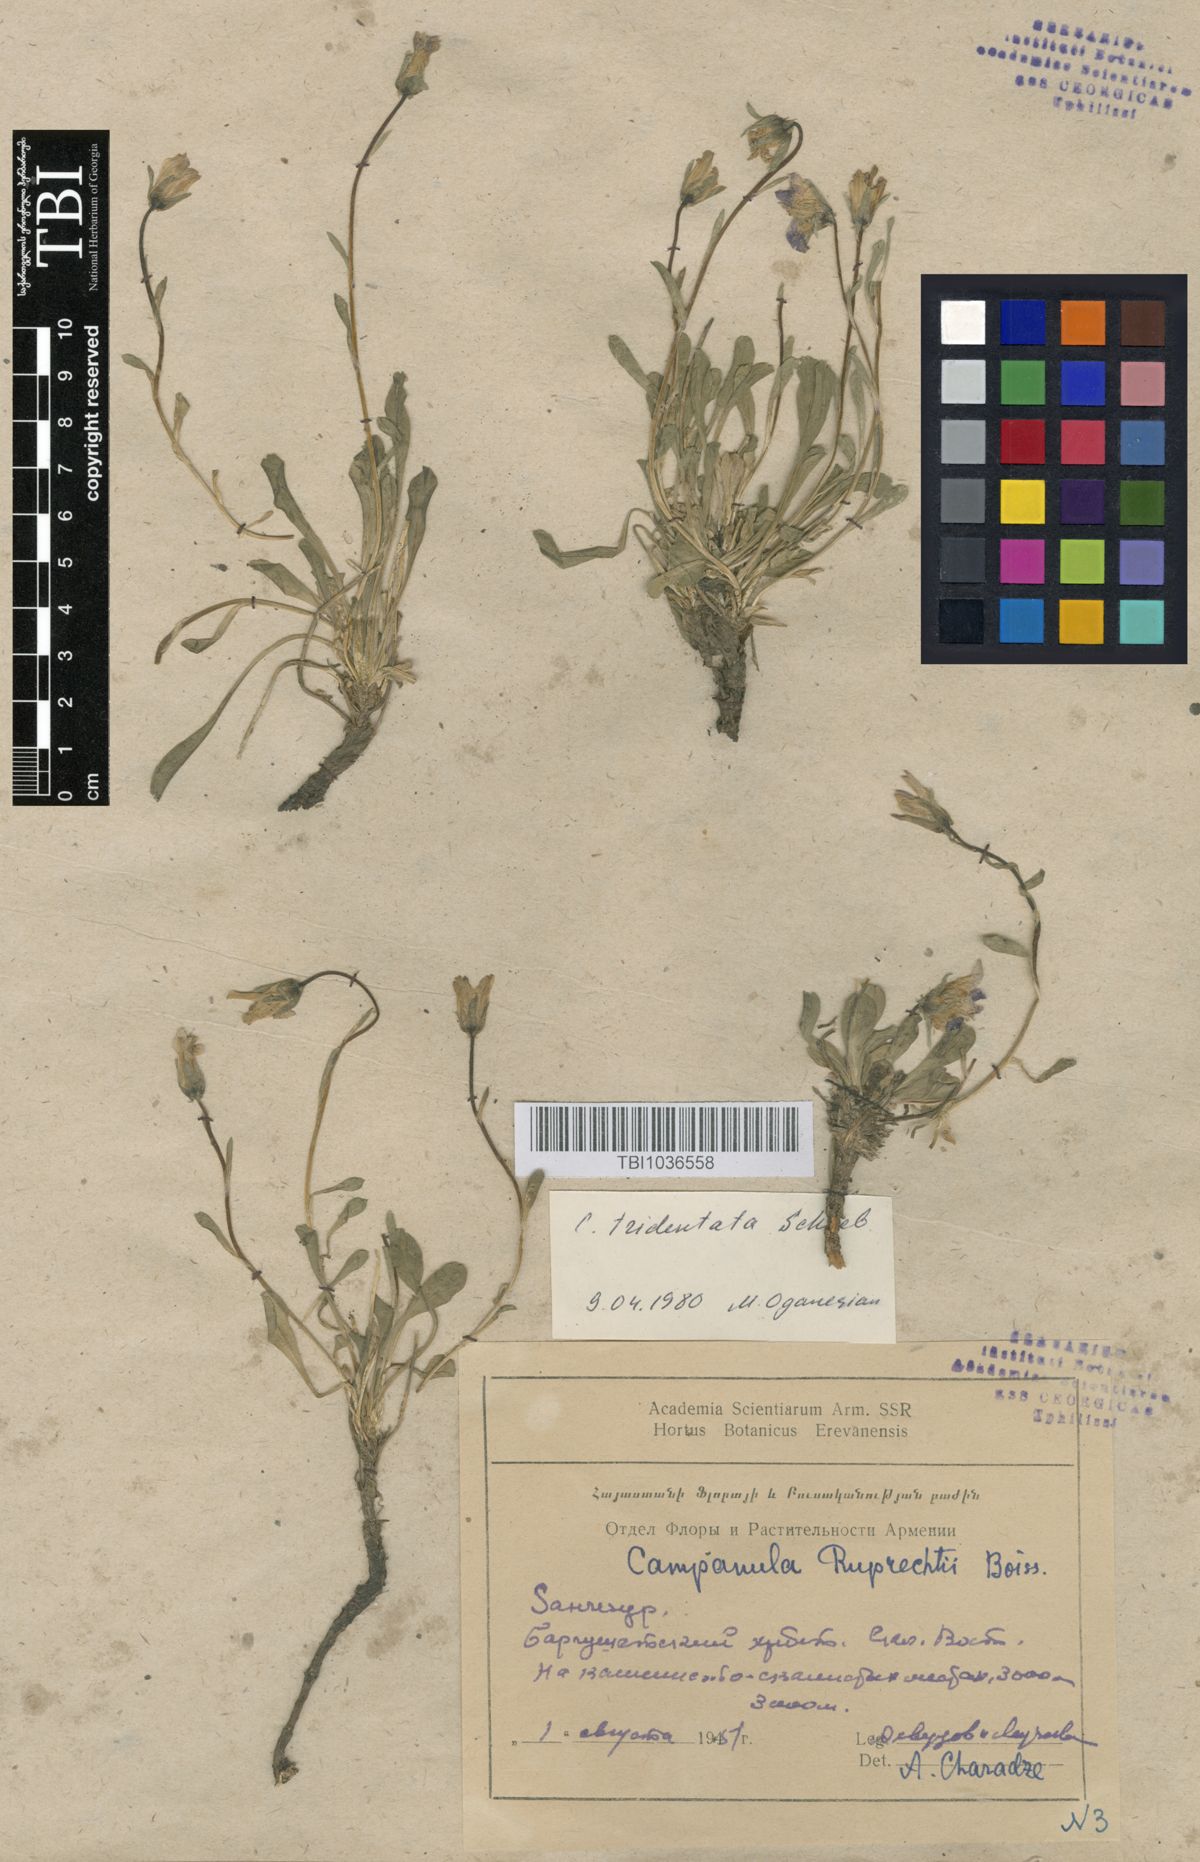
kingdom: Plantae
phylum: Tracheophyta
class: Magnoliopsida
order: Asterales
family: Campanulaceae
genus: Campanula
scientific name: Campanula tridentata
